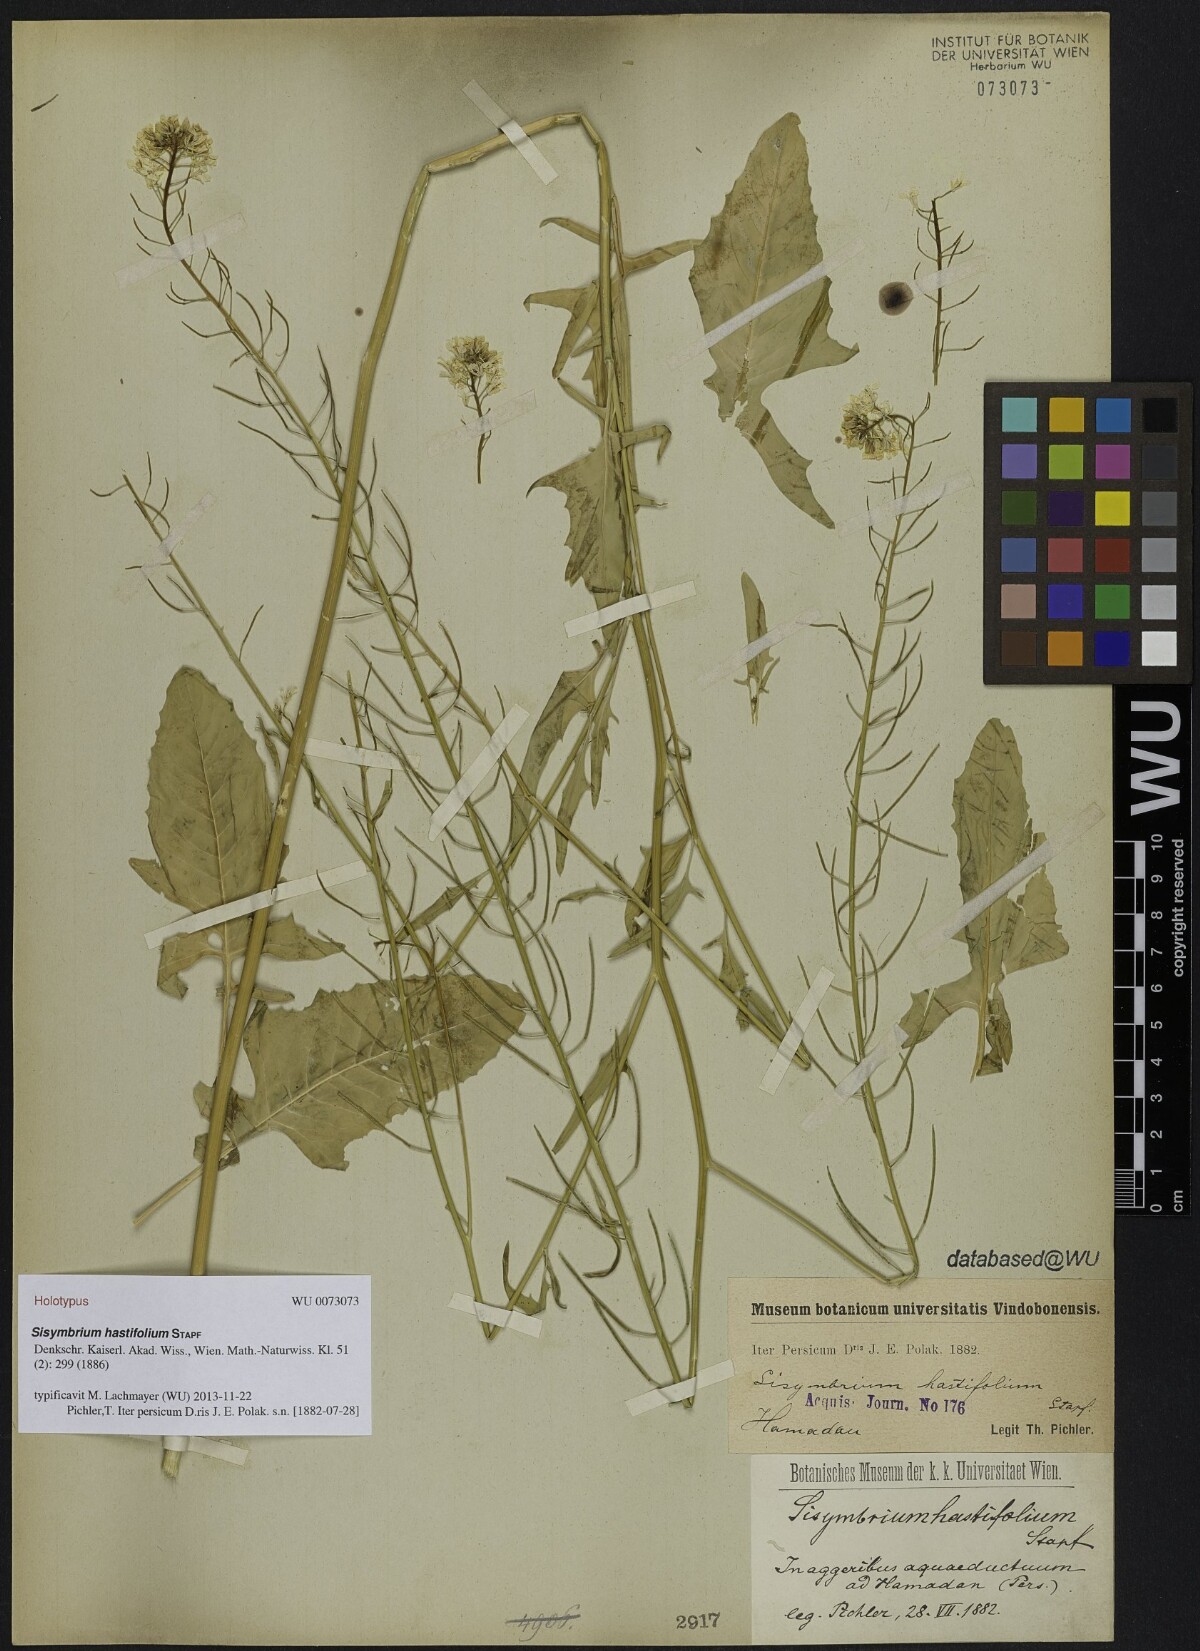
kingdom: Plantae
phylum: Tracheophyta
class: Magnoliopsida
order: Brassicales
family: Brassicaceae
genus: Sisymbrium
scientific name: Sisymbrium loeselii
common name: False london-rocket
